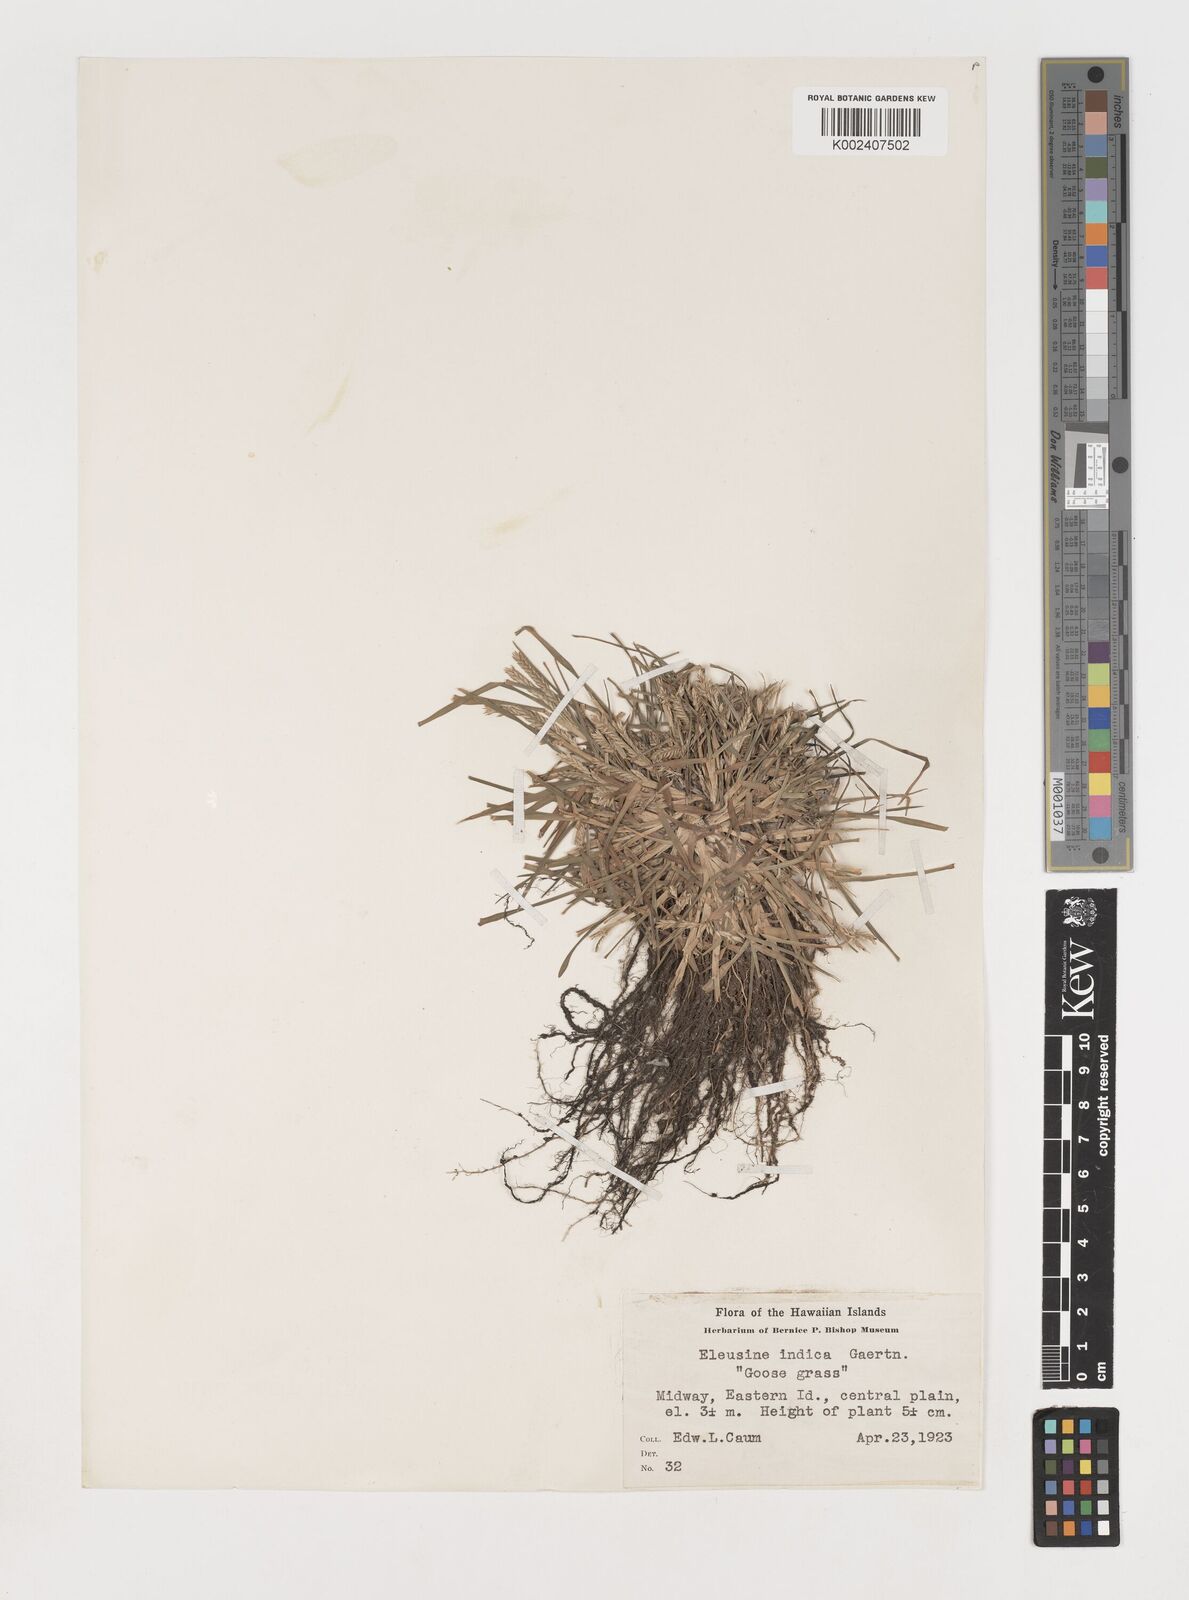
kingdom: Plantae
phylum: Tracheophyta
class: Liliopsida
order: Poales
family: Poaceae
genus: Eleusine
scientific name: Eleusine indica
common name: Yard-grass
